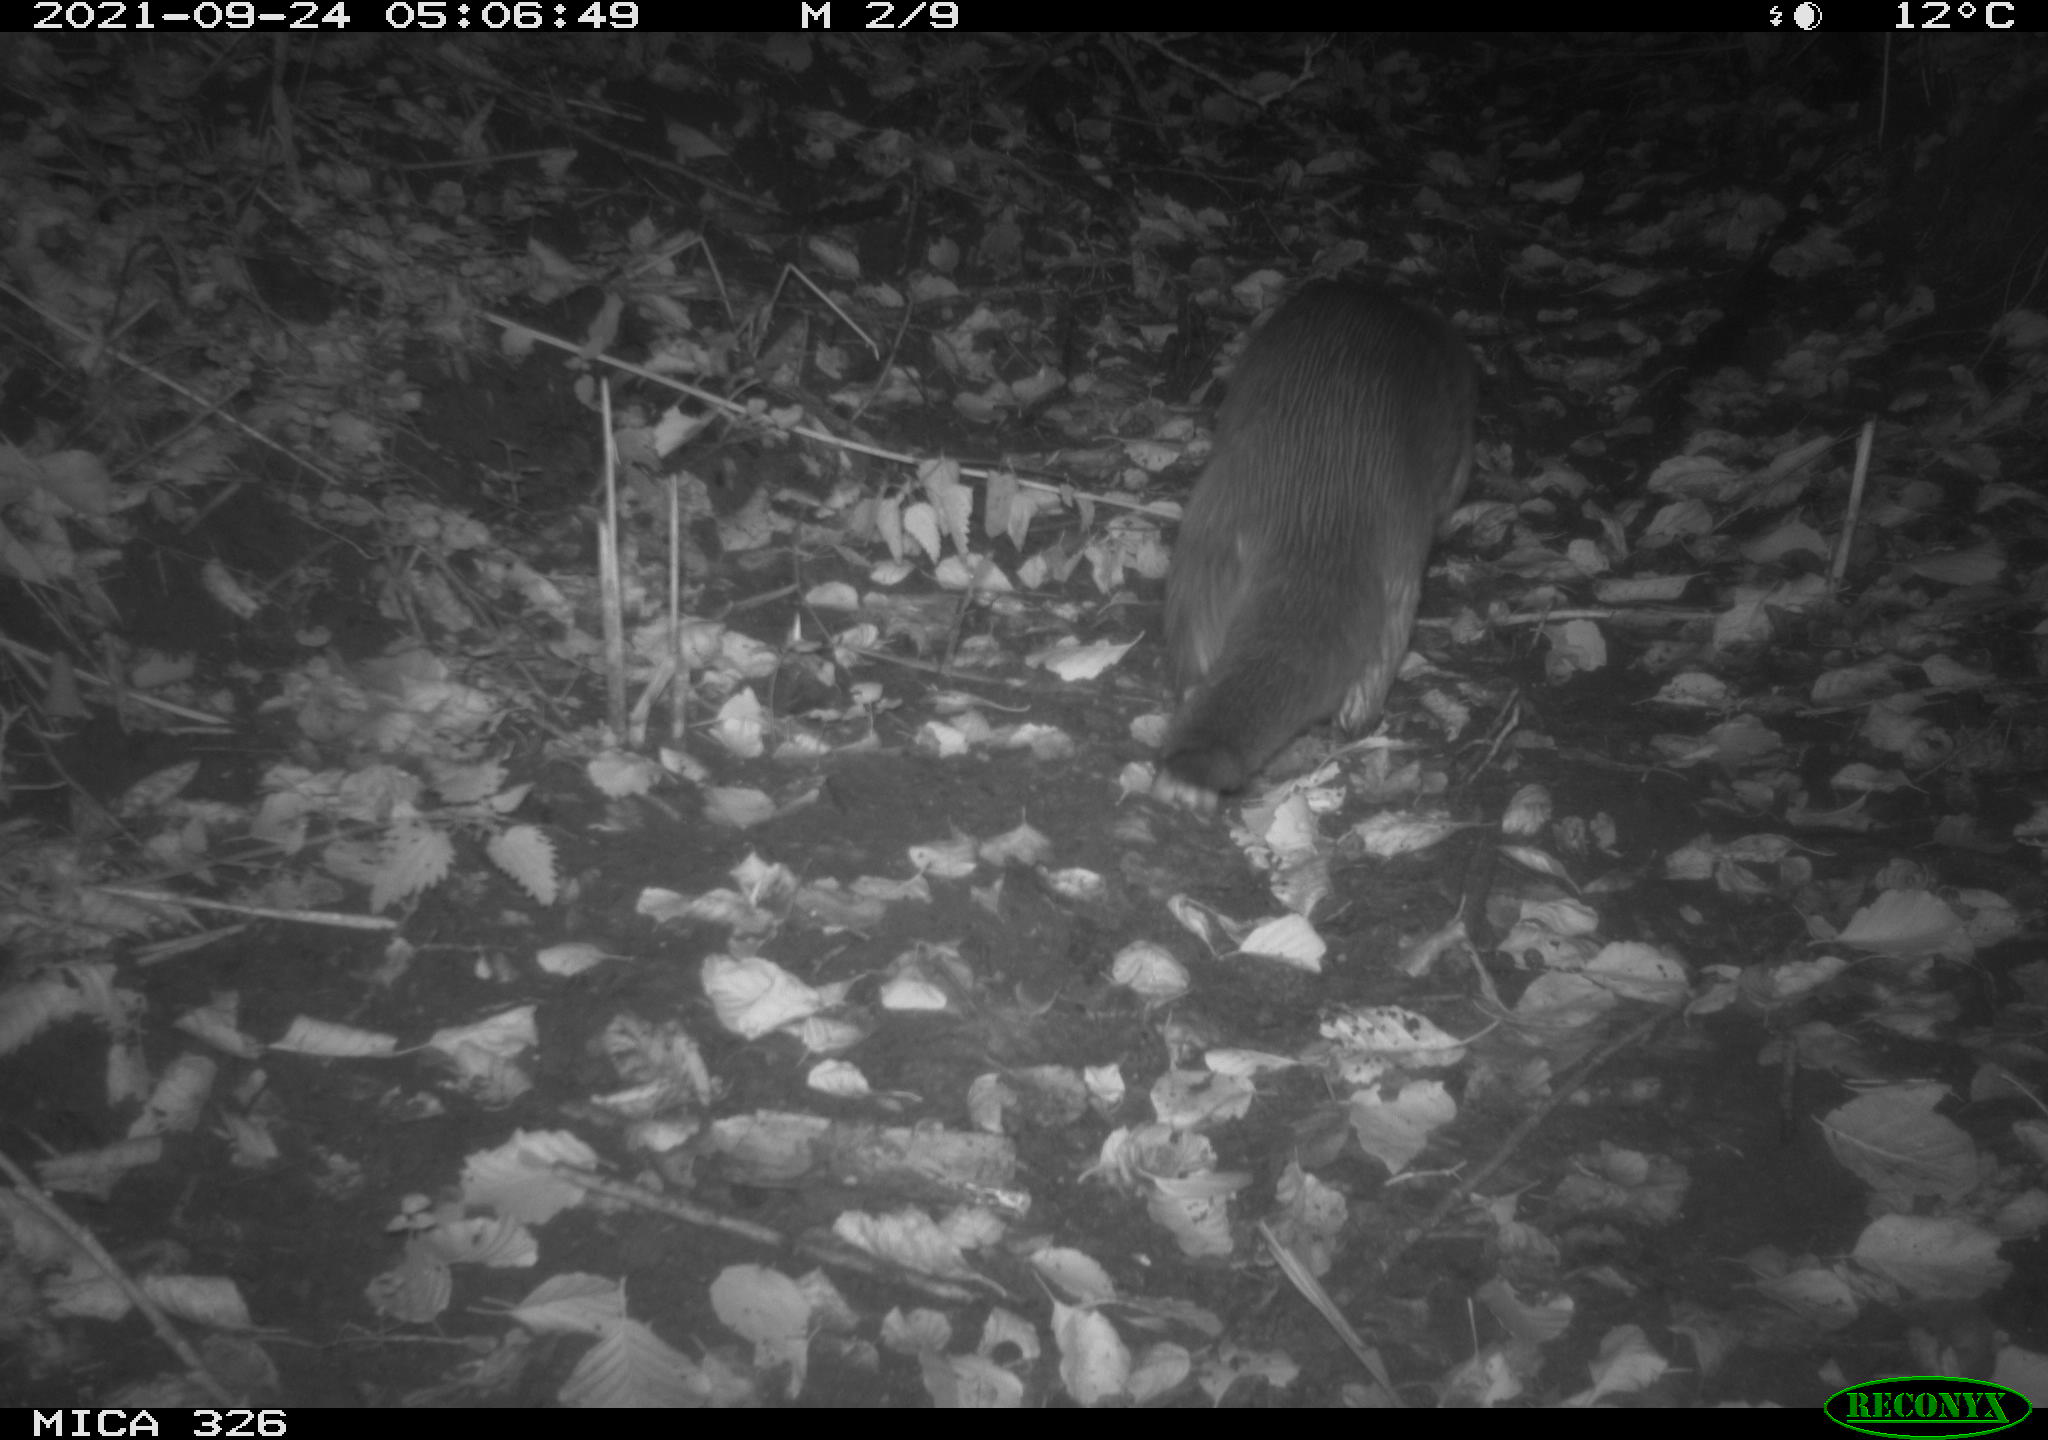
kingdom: Animalia
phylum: Chordata
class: Mammalia
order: Carnivora
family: Mustelidae
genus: Lutra
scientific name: Lutra lutra
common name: European otter
